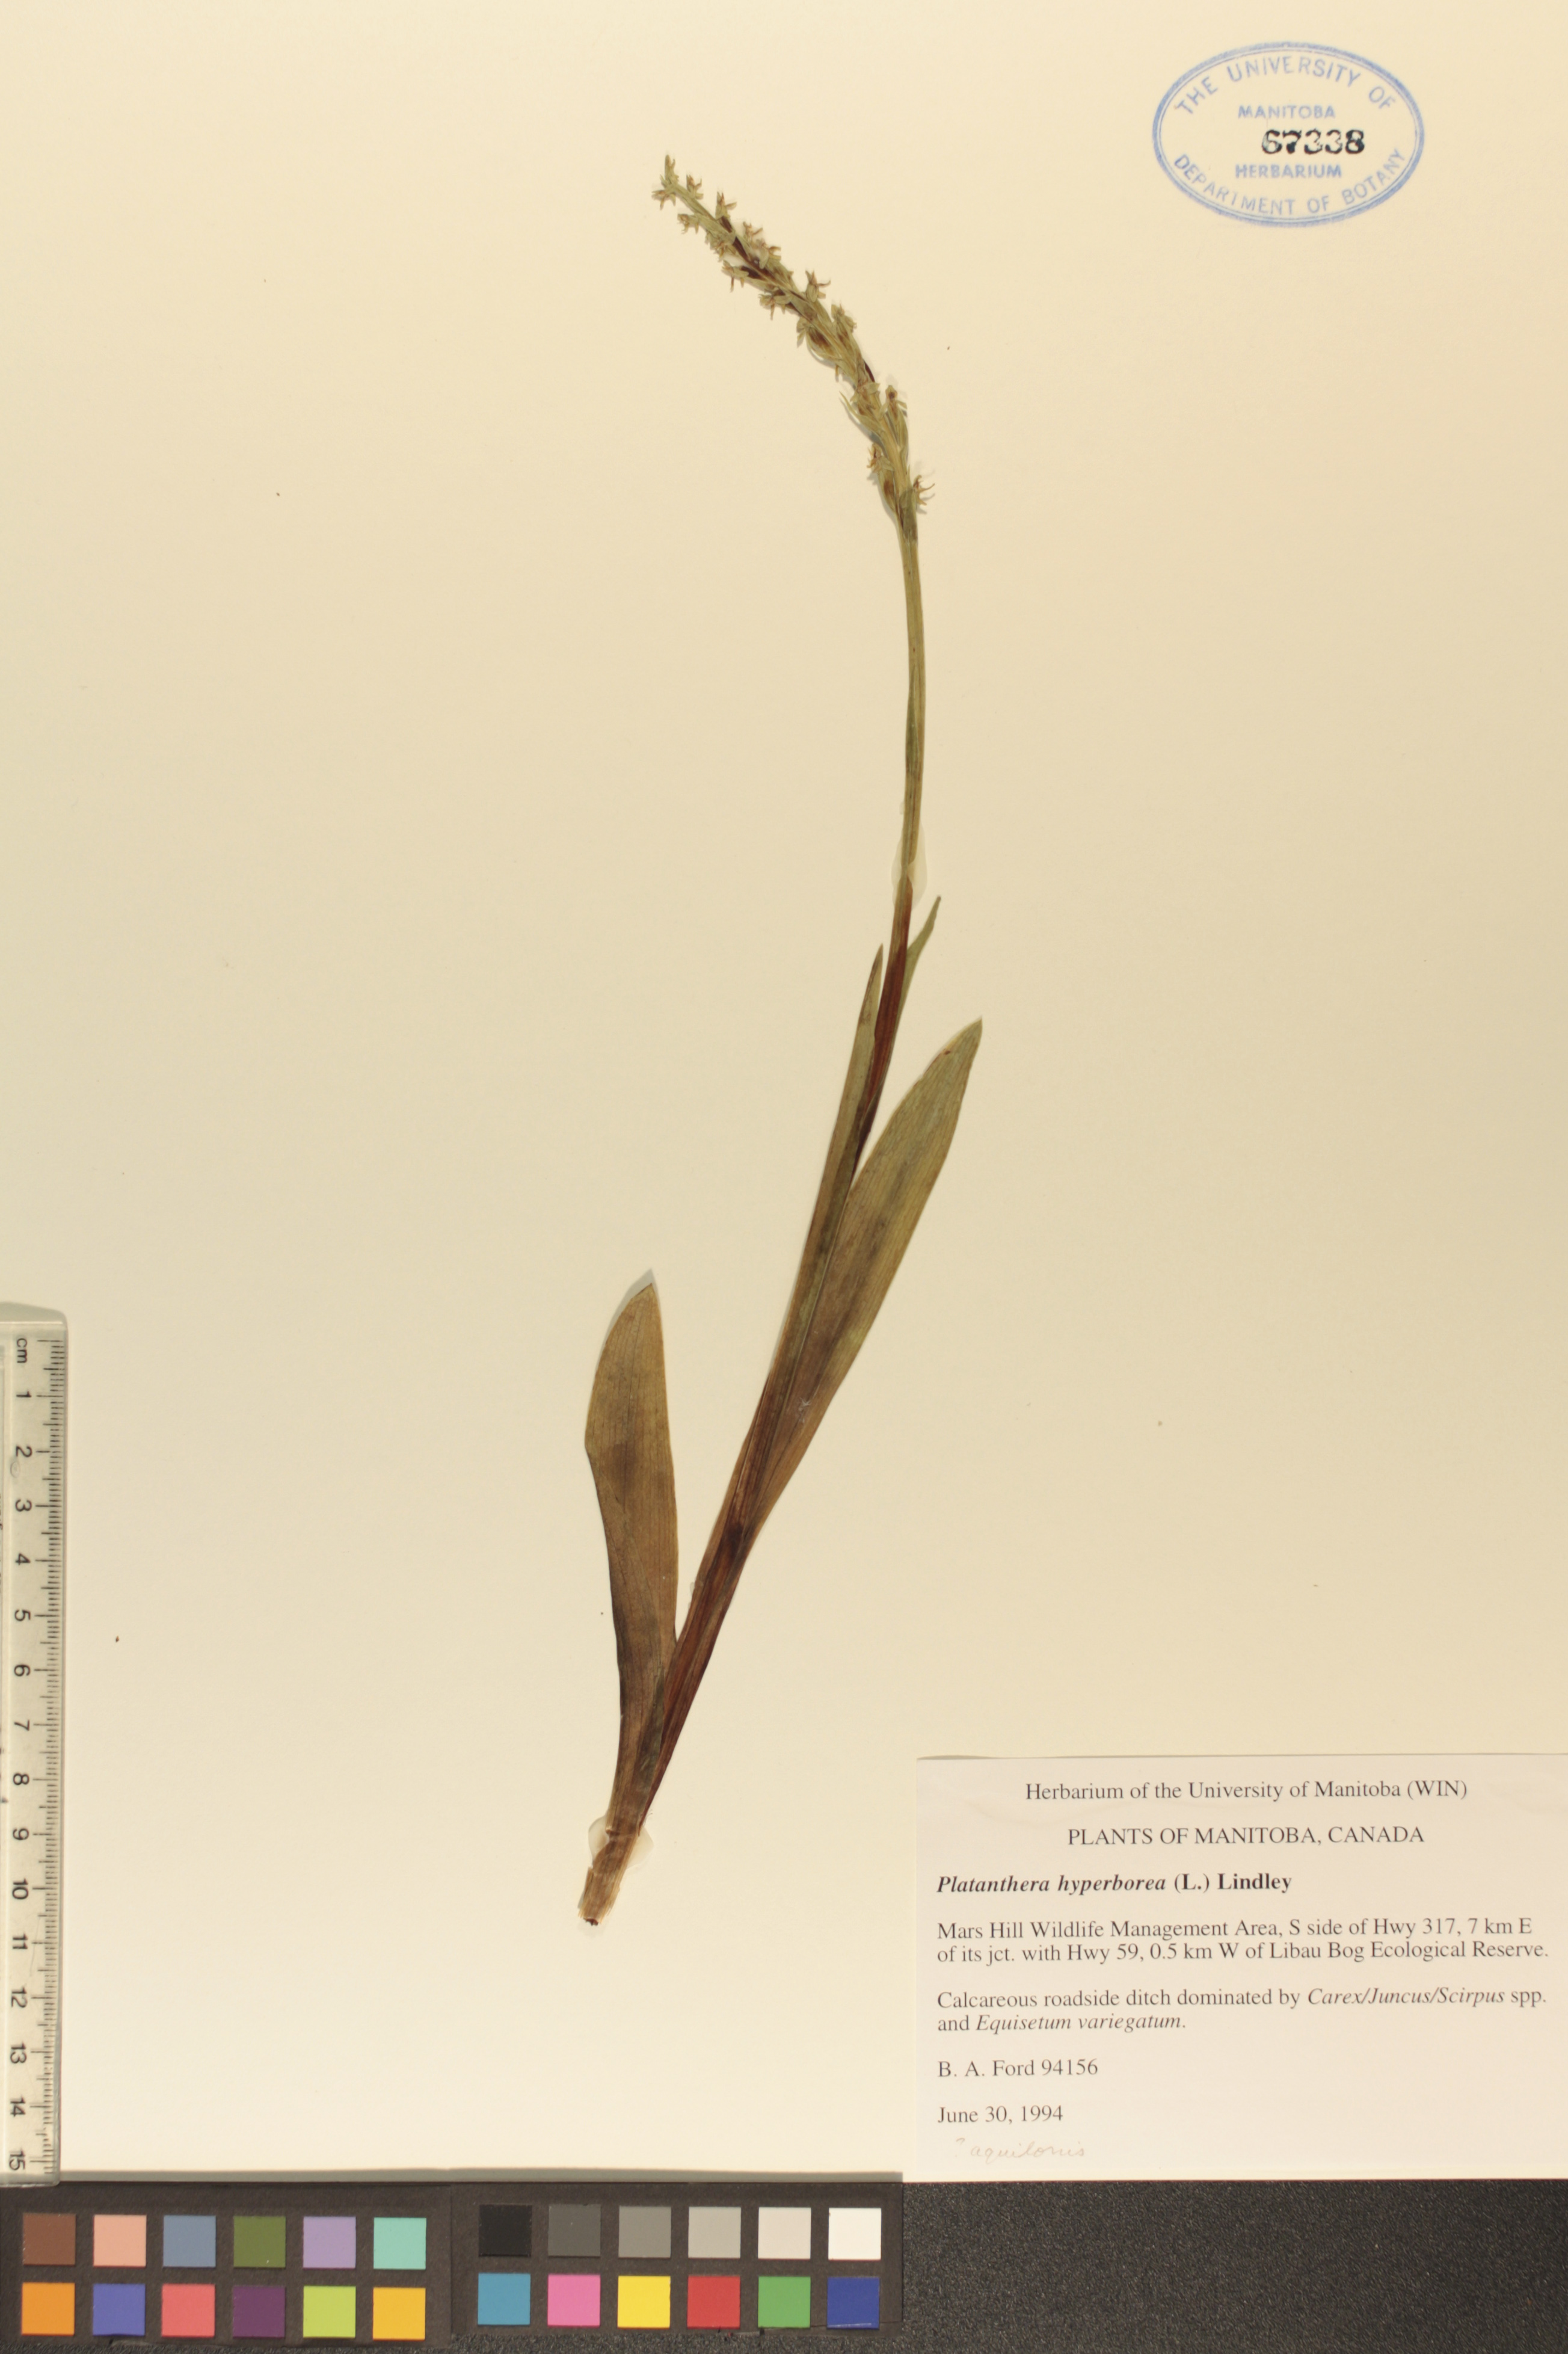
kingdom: Plantae
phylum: Tracheophyta
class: Liliopsida
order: Asparagales
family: Orchidaceae
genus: Platanthera
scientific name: Platanthera hyperborea
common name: Northern green orchid
